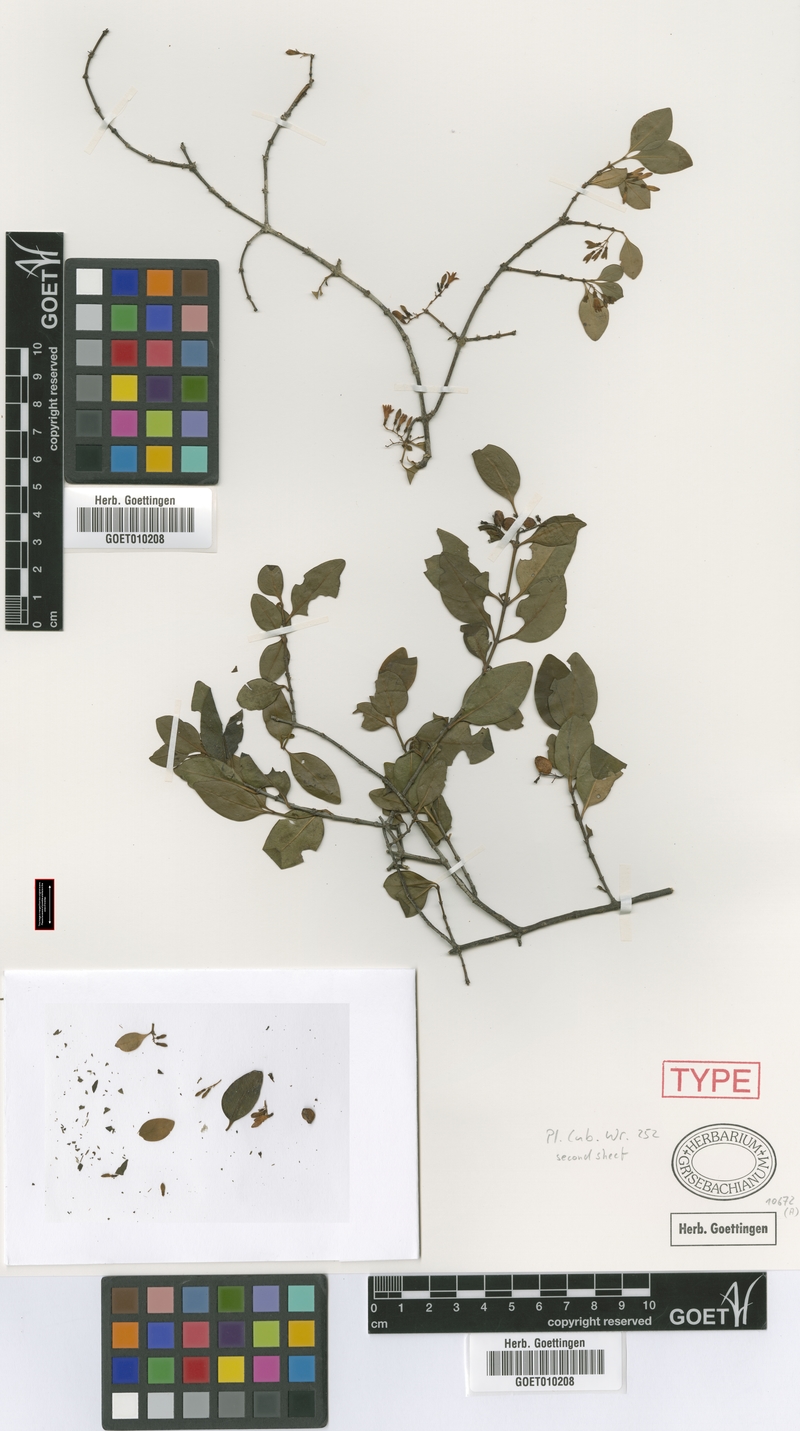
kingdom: Plantae
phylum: Tracheophyta
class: Magnoliopsida
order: Gentianales
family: Rubiaceae
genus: Chiococca
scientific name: Chiococca alba
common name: Snowberry
